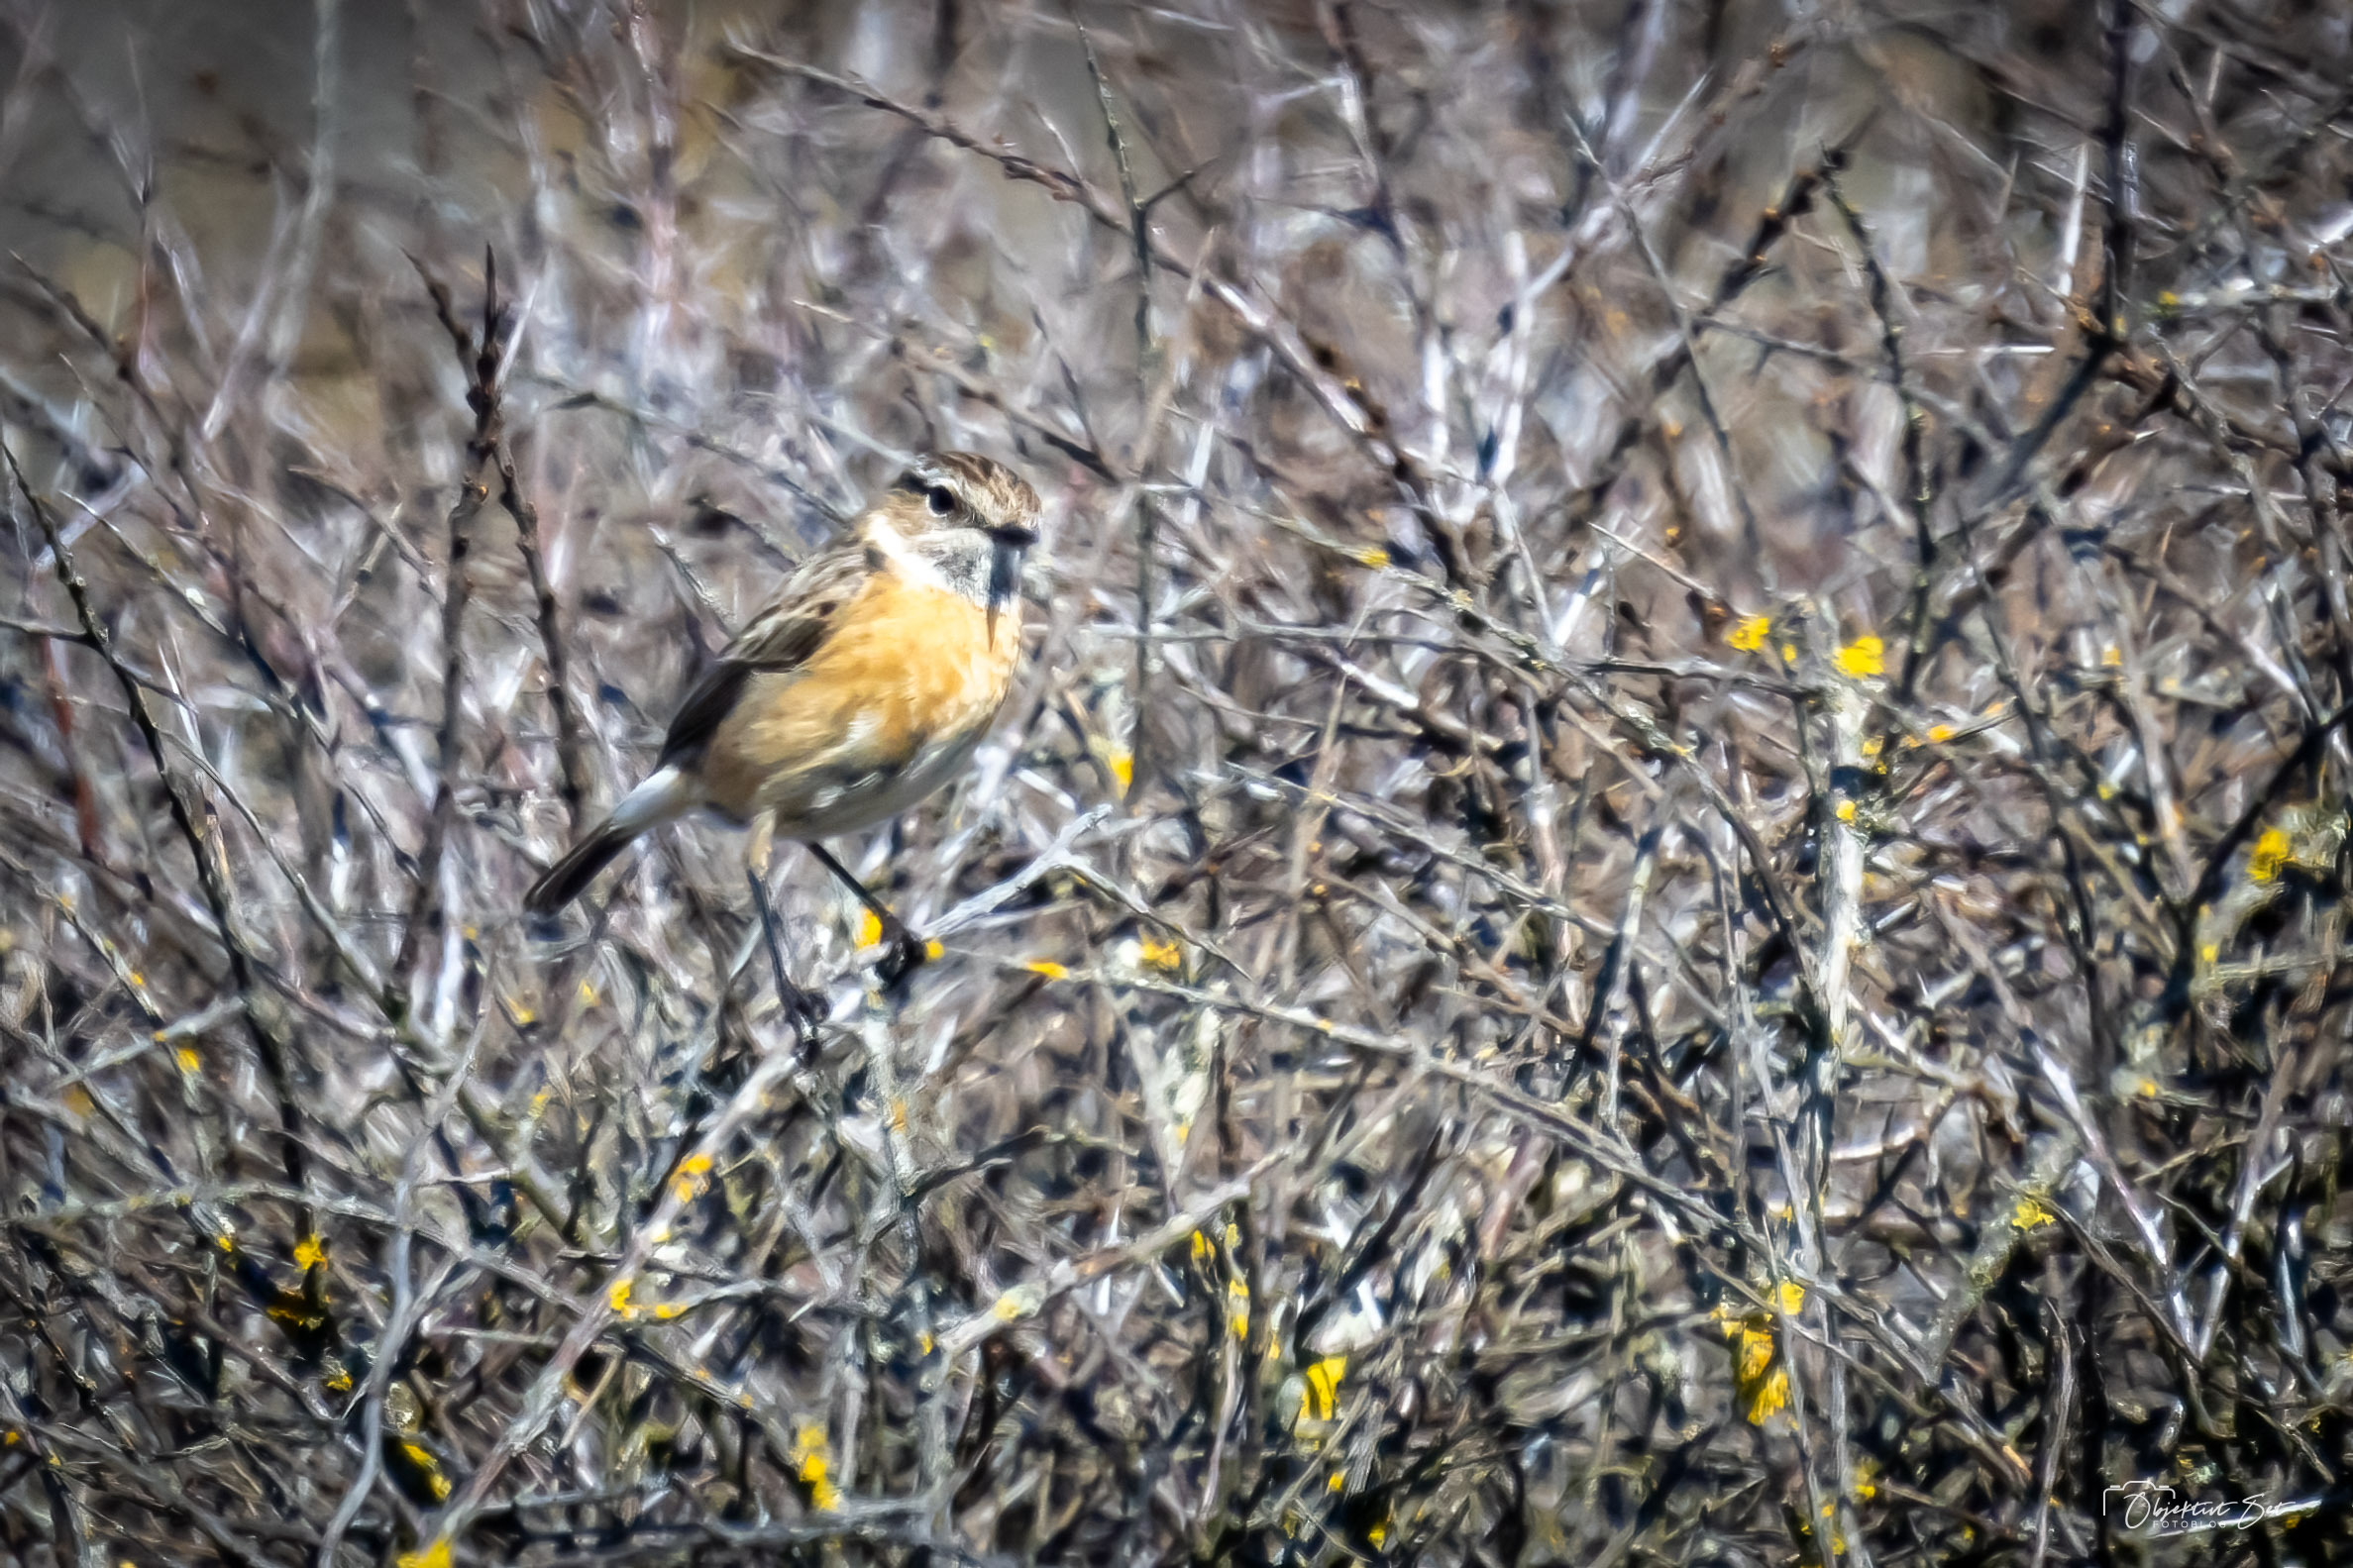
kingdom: Animalia
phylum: Chordata
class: Aves
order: Passeriformes
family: Muscicapidae
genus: Saxicola
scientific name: Saxicola rubicola
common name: Sortstrubet bynkefugl
